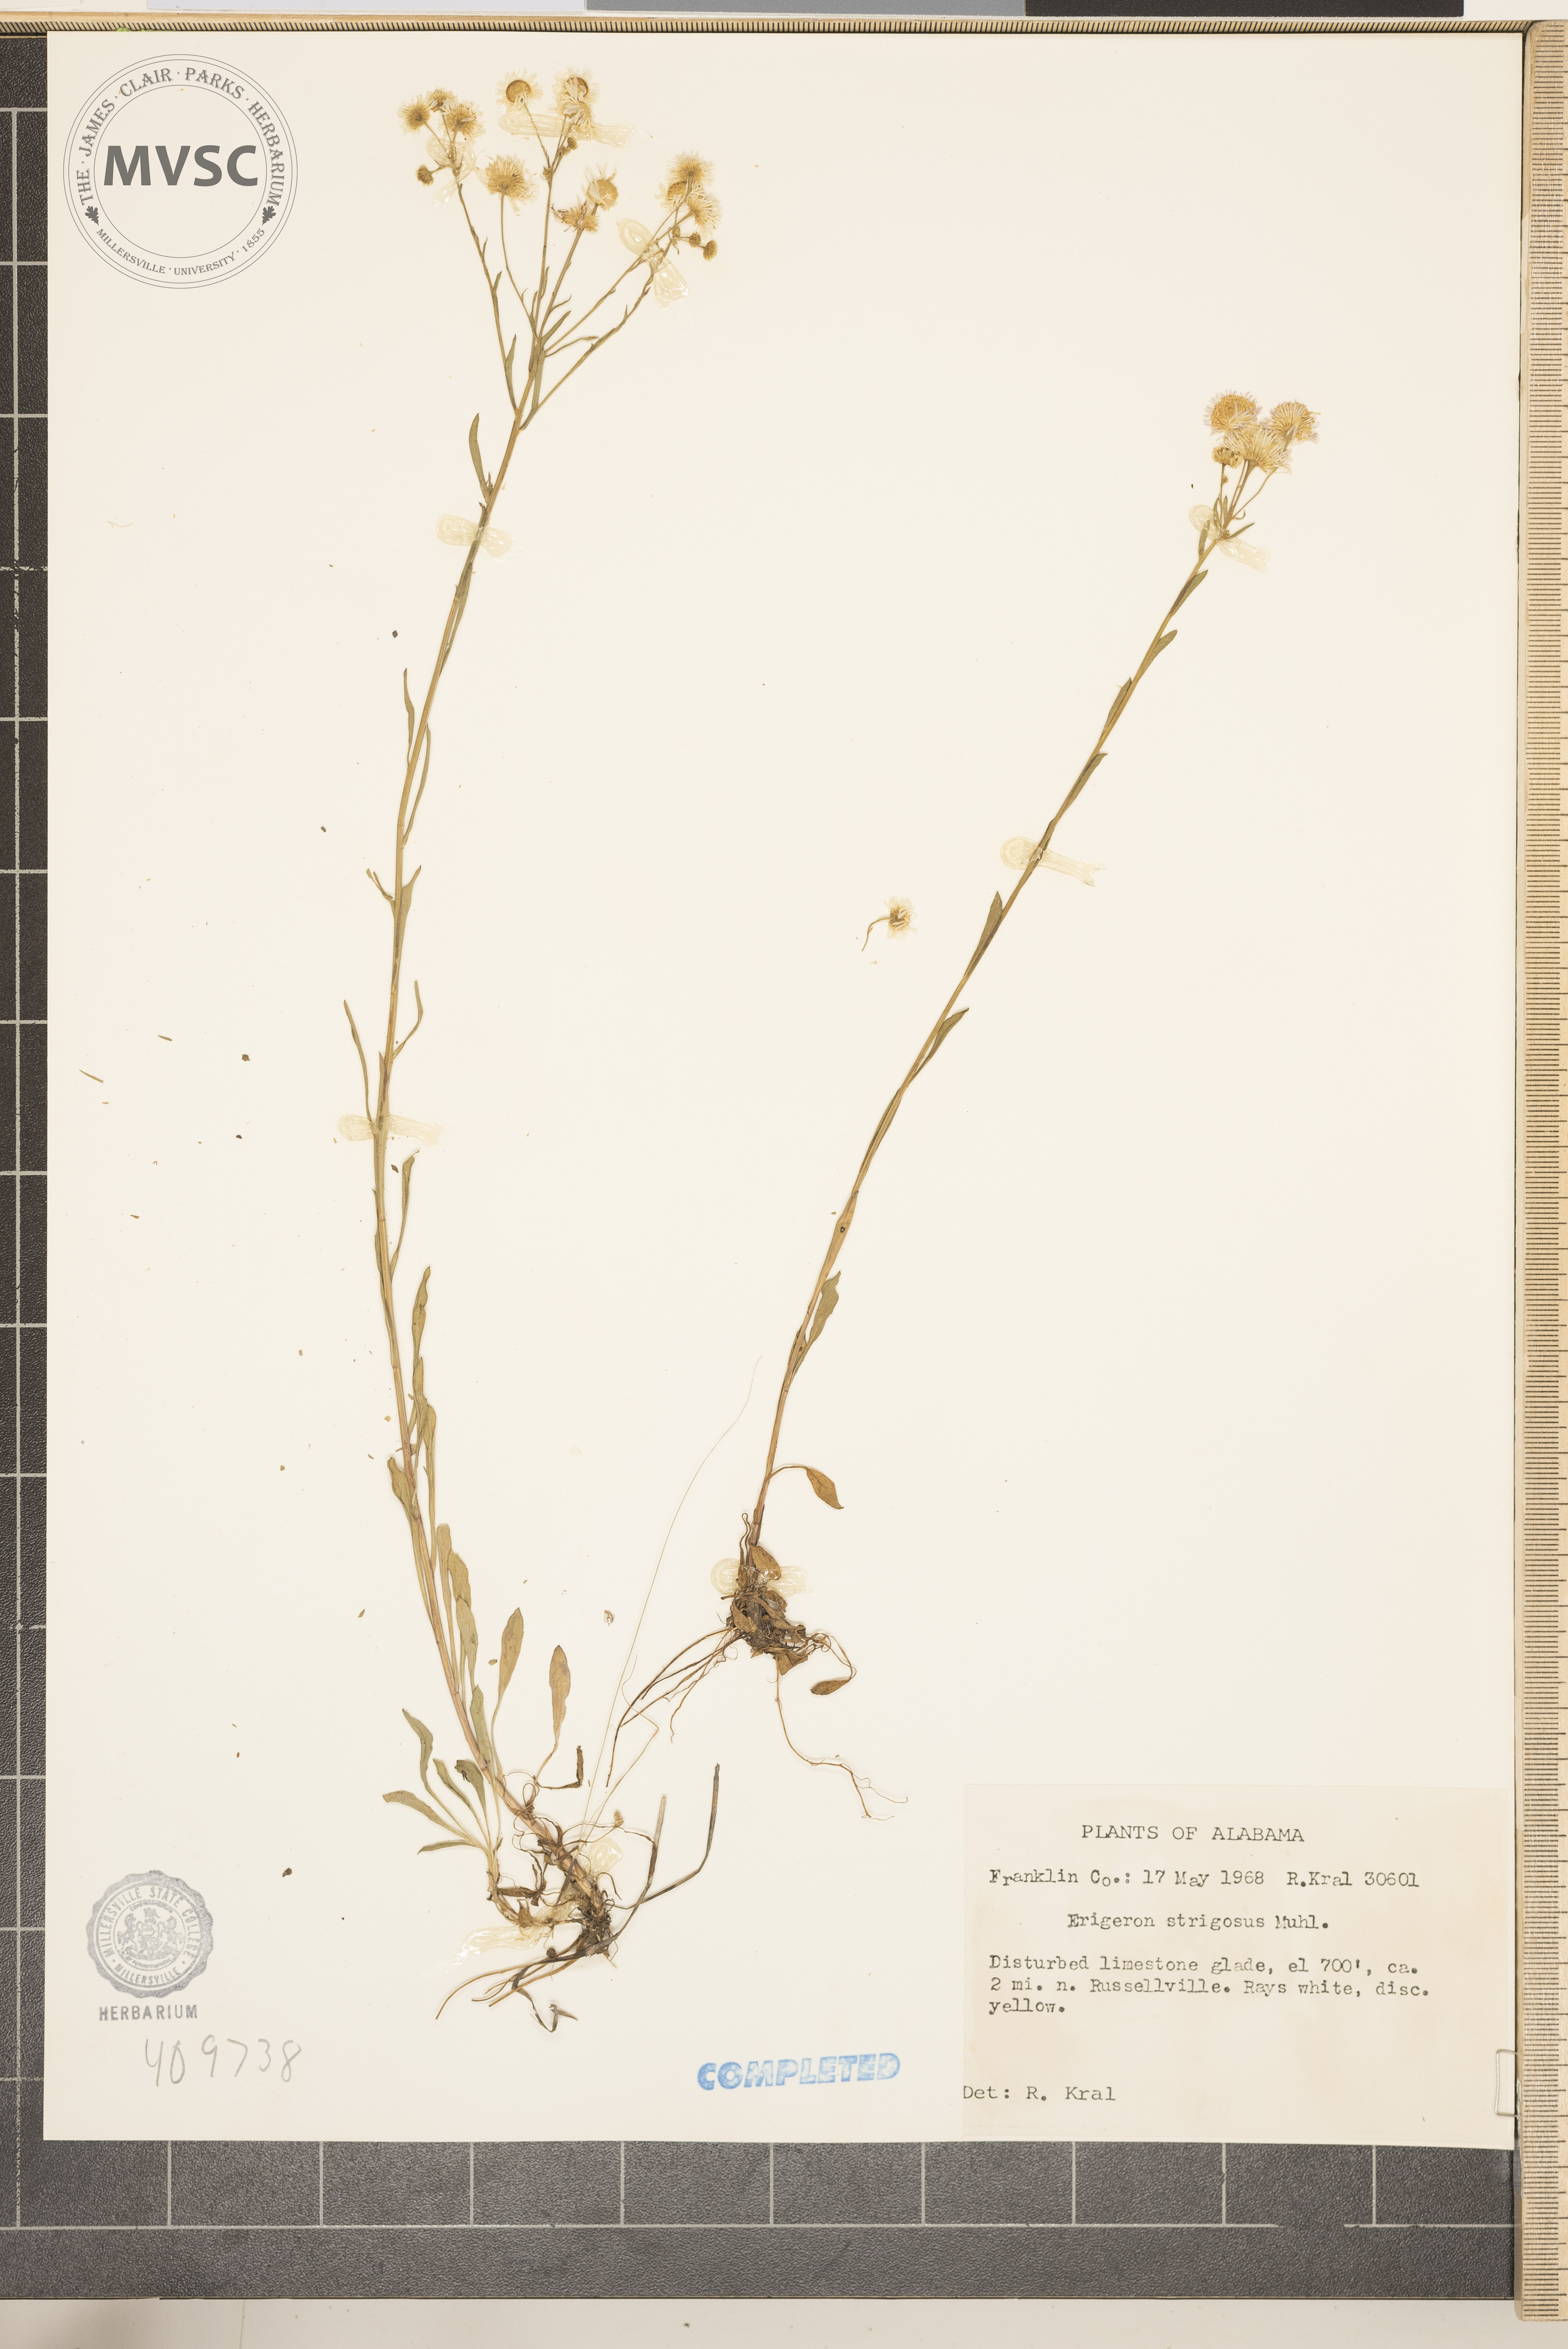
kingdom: Plantae
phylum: Tracheophyta
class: Magnoliopsida
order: Asterales
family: Asteraceae
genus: Erigeron
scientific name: Erigeron strigosus
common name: Common eastern fleabane
